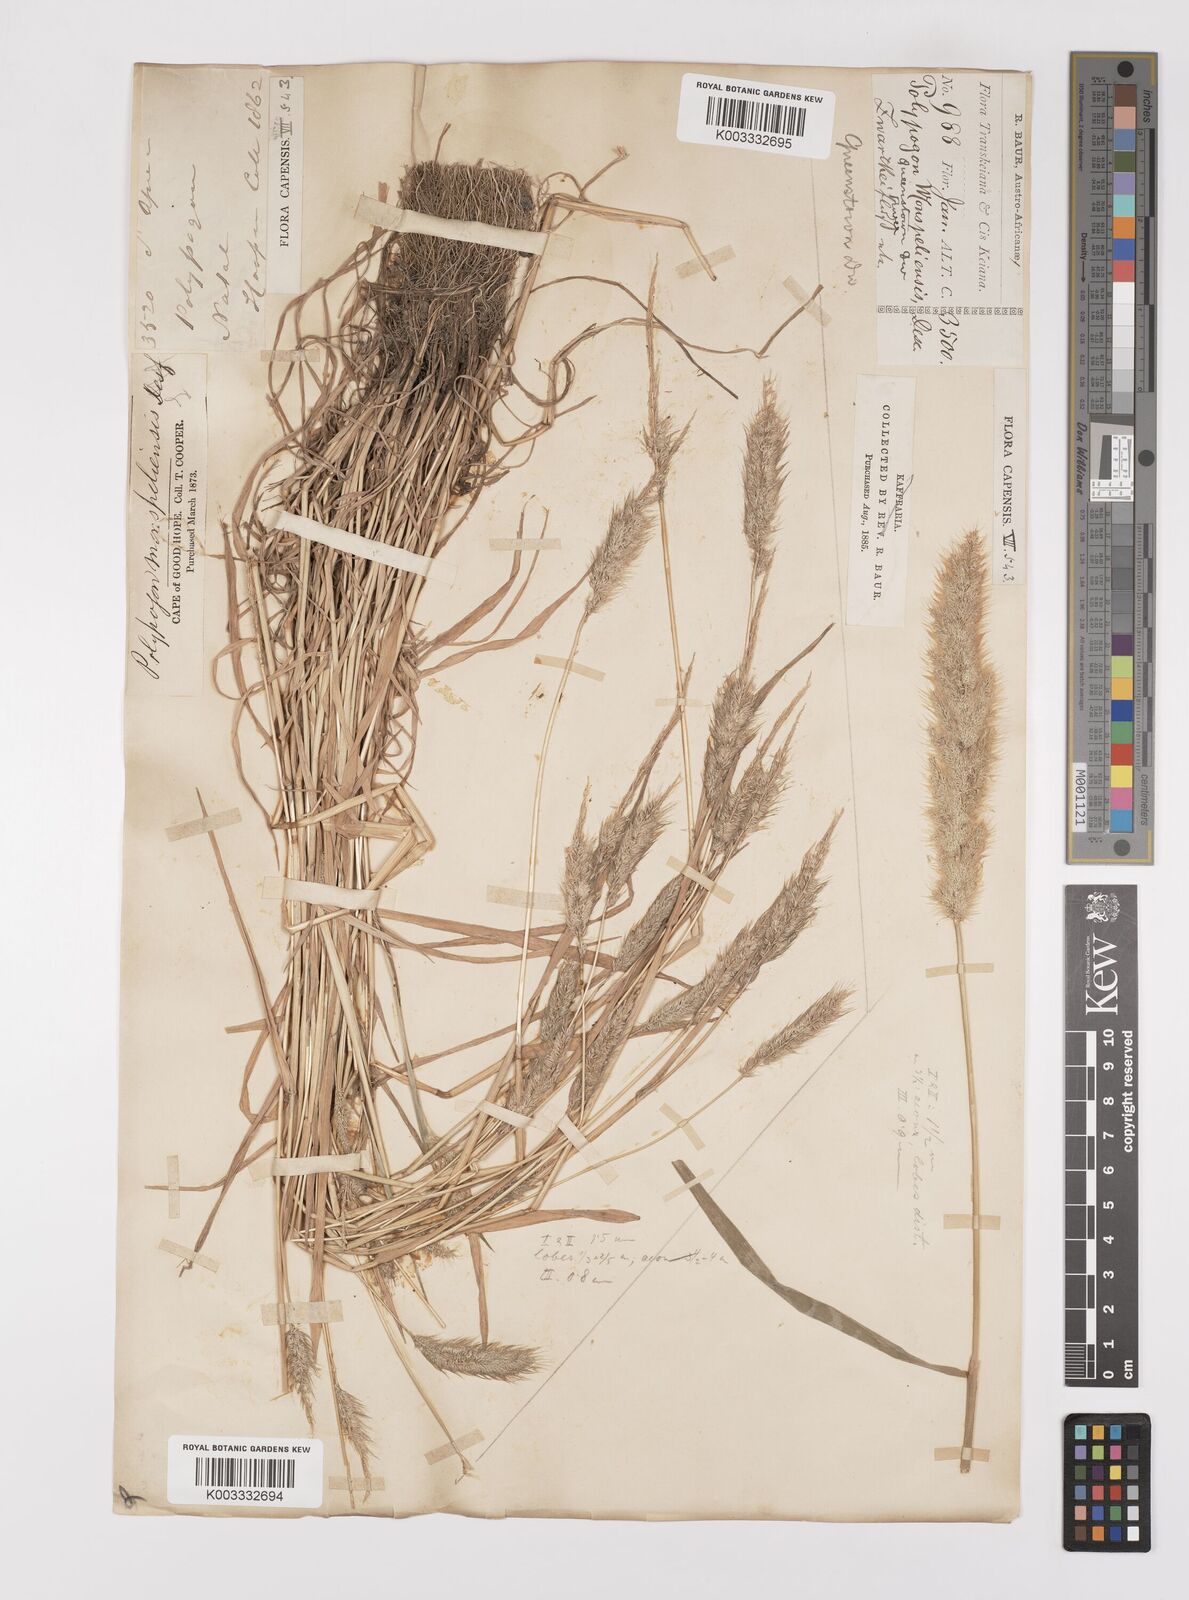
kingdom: Plantae
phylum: Tracheophyta
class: Liliopsida
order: Poales
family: Poaceae
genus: Polypogon
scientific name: Polypogon monspeliensis
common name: Annual rabbitsfoot grass
